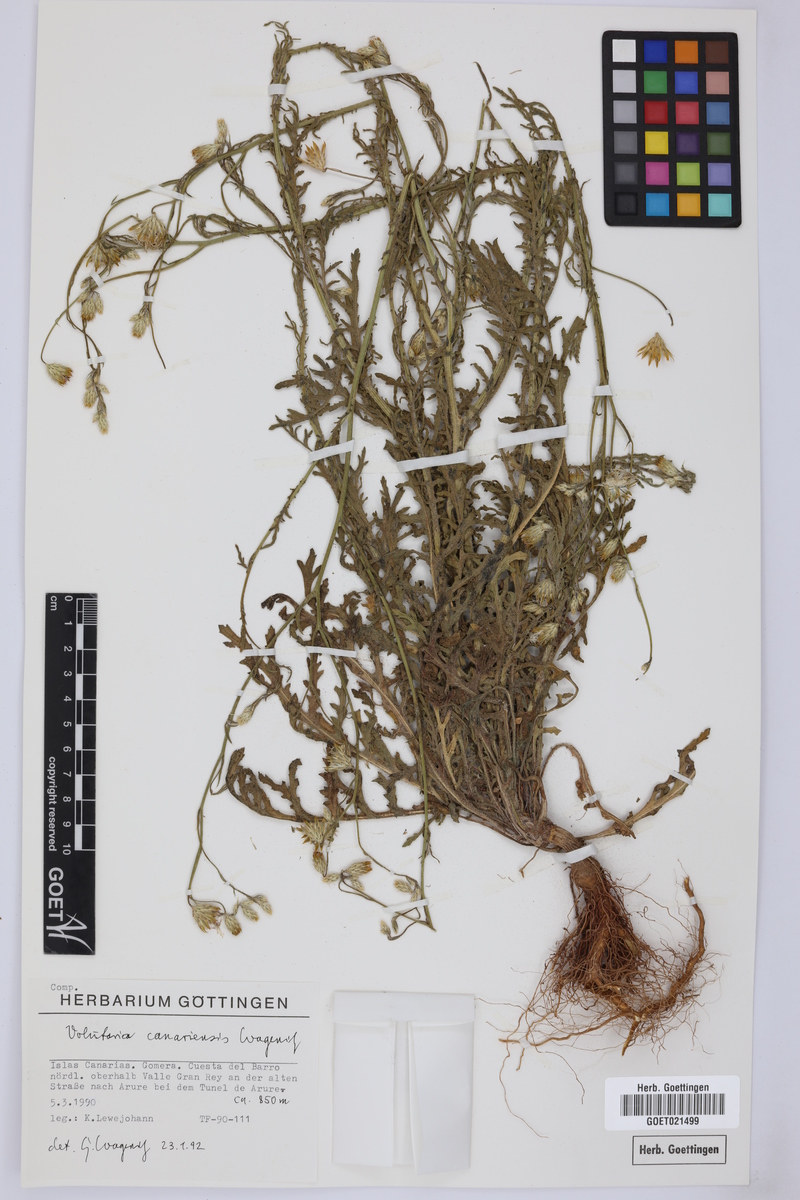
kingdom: Plantae
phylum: Tracheophyta
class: Magnoliopsida
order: Asterales
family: Asteraceae
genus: Volutaria
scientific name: Volutaria canariensis
